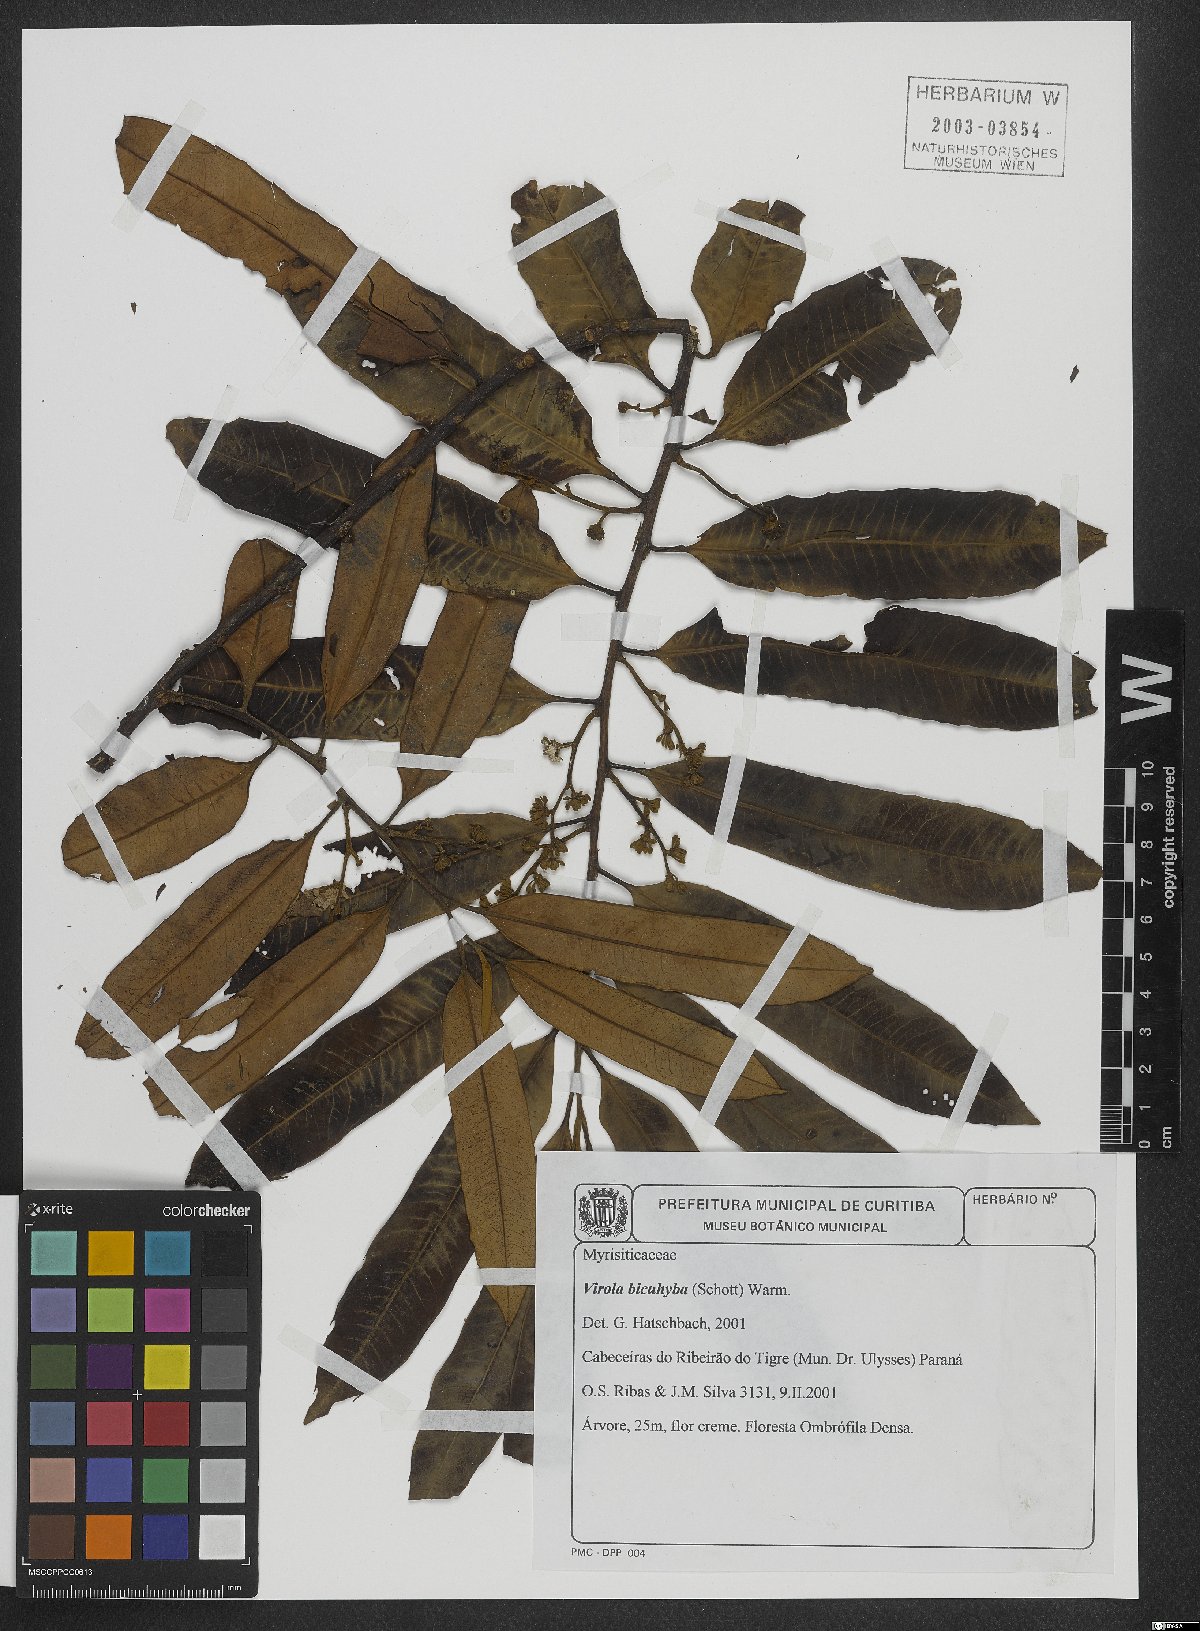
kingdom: Plantae
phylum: Tracheophyta
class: Magnoliopsida
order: Magnoliales
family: Myristicaceae
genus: Virola
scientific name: Virola bicuhyba
